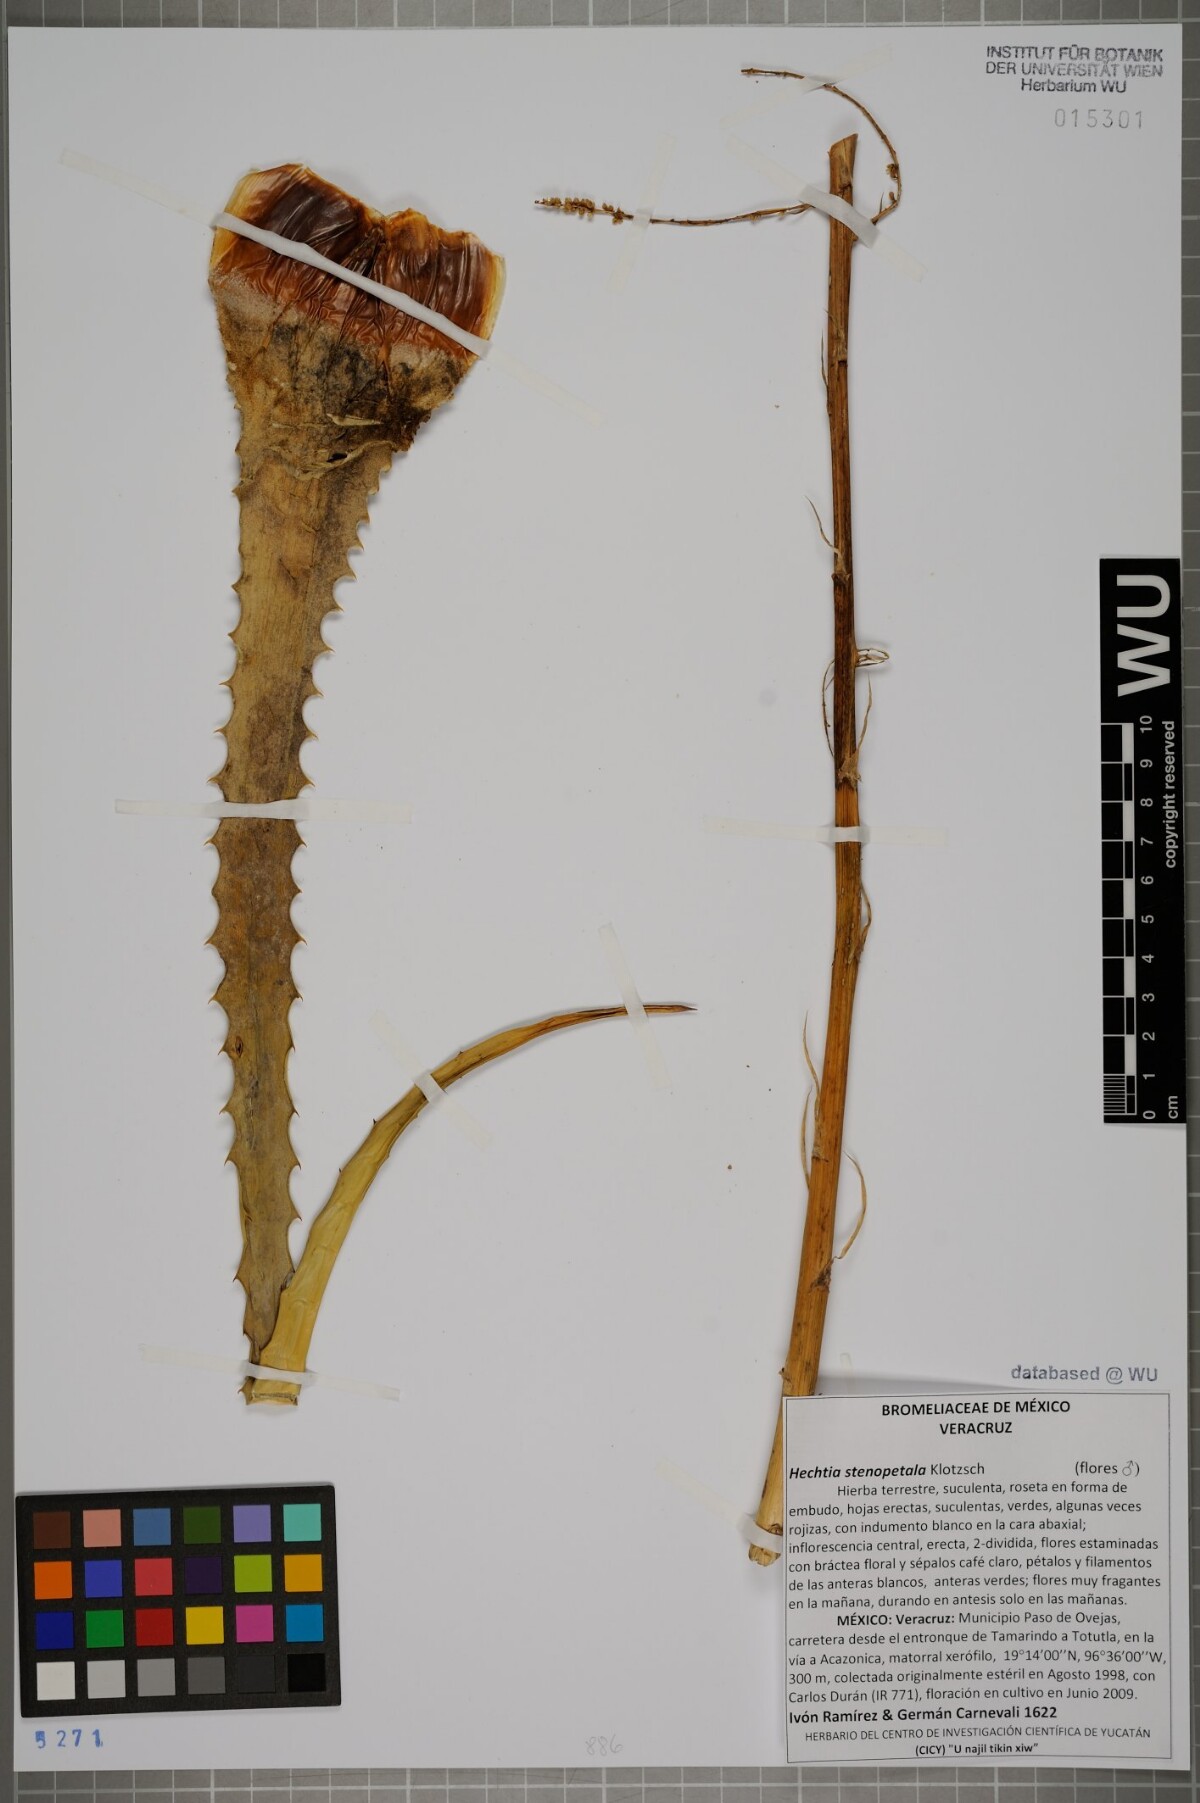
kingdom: Plantae
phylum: Tracheophyta
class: Liliopsida
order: Poales
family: Bromeliaceae
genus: Hechtia
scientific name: Hechtia stenopetala
